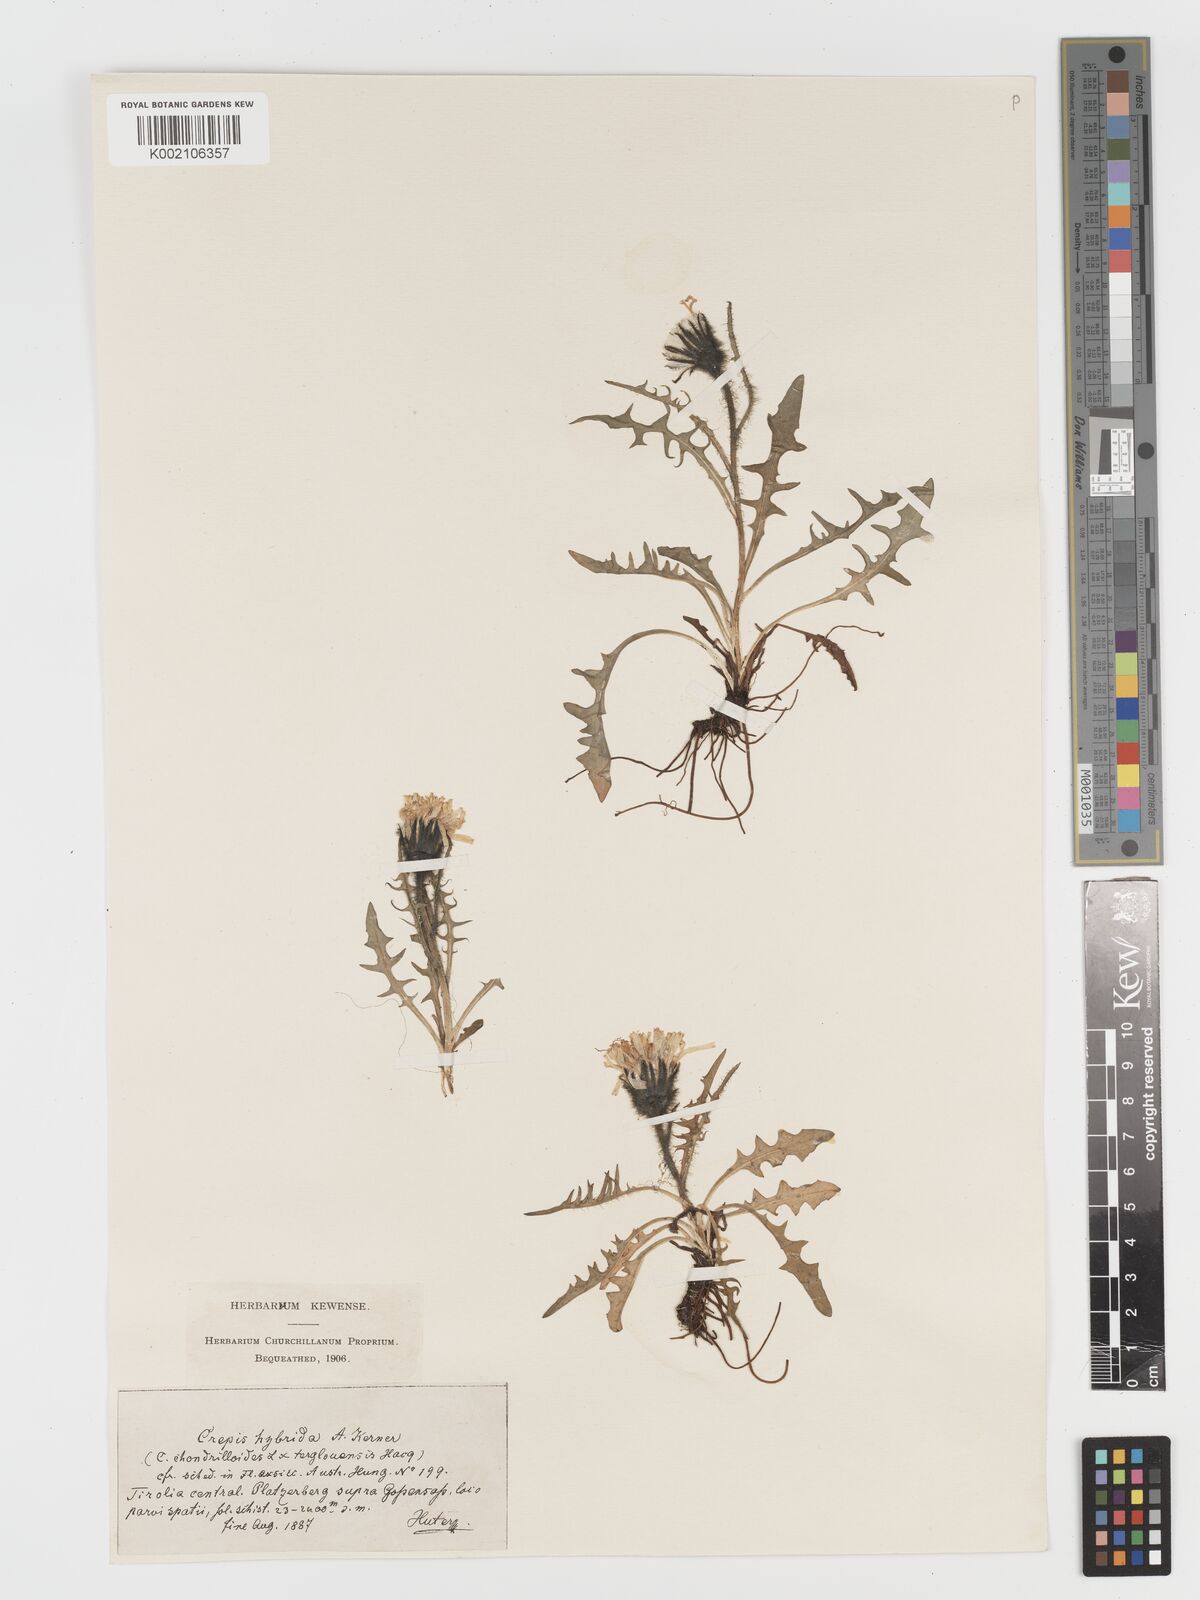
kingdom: Plantae
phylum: Tracheophyta
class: Magnoliopsida
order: Asterales
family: Asteraceae
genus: Crepis
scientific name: Crepis hybrida
